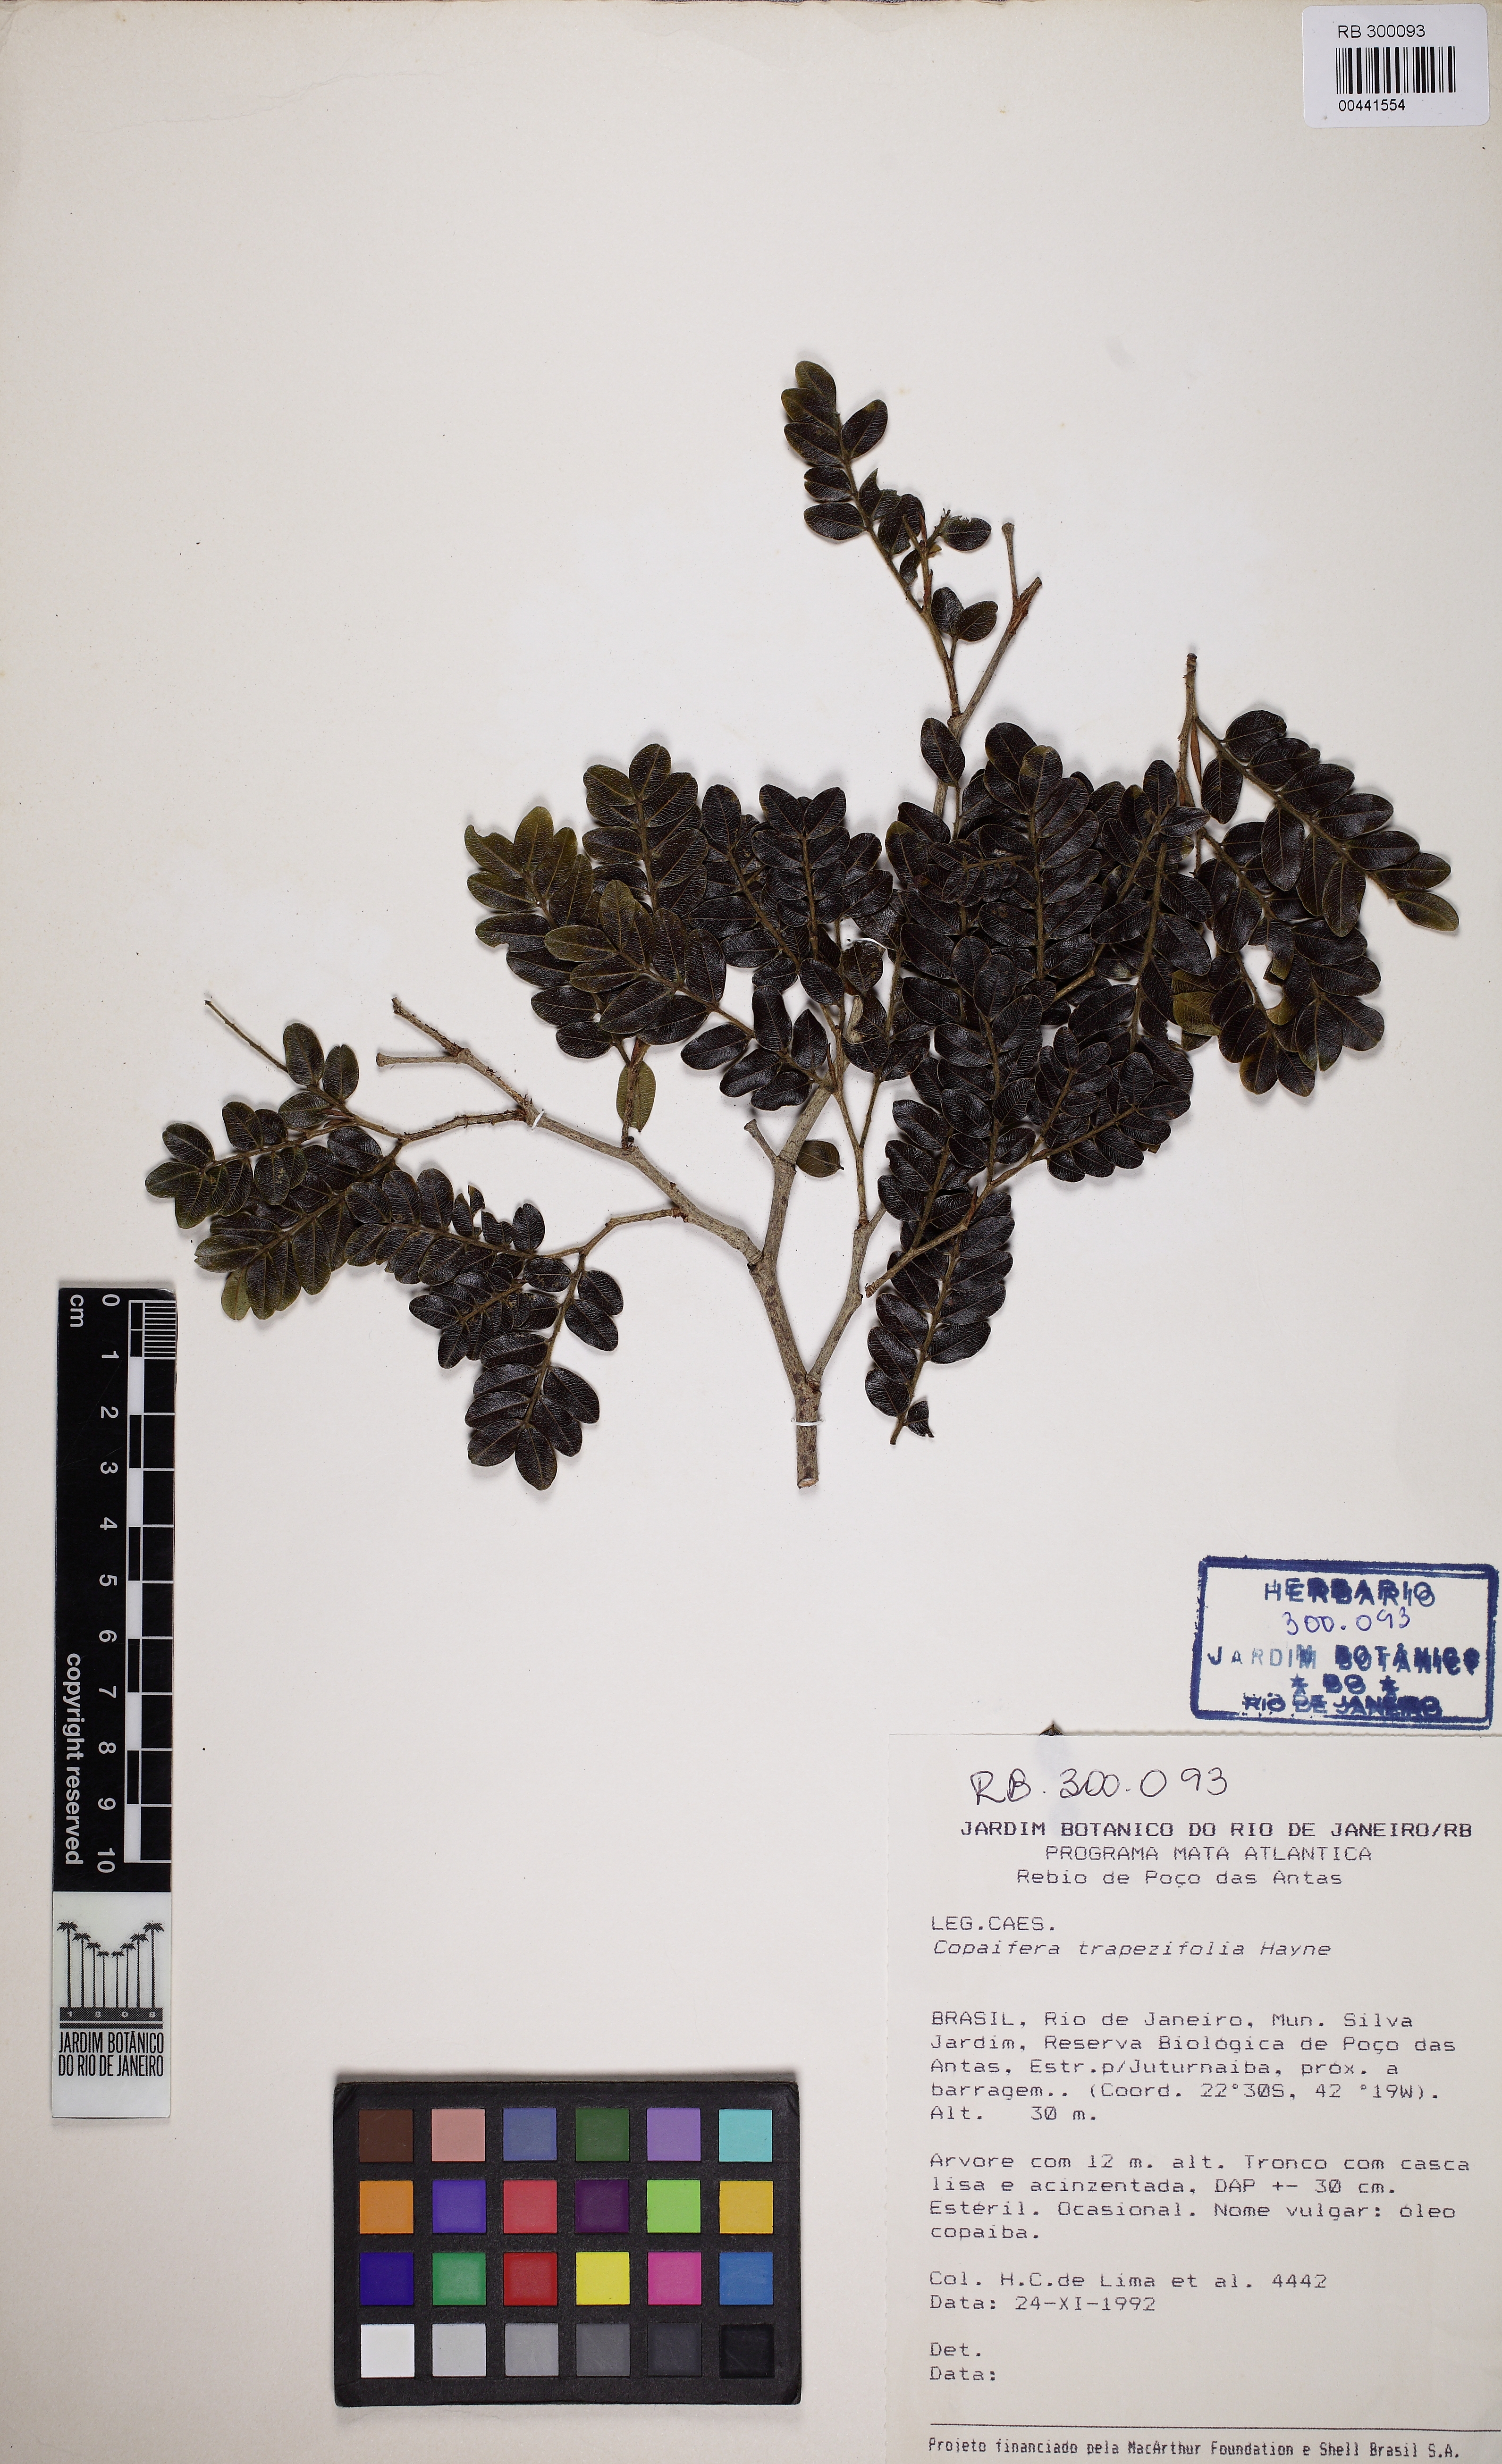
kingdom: Plantae
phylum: Tracheophyta
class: Magnoliopsida
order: Fabales
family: Fabaceae
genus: Copaifera
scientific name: Copaifera trapezifolia
